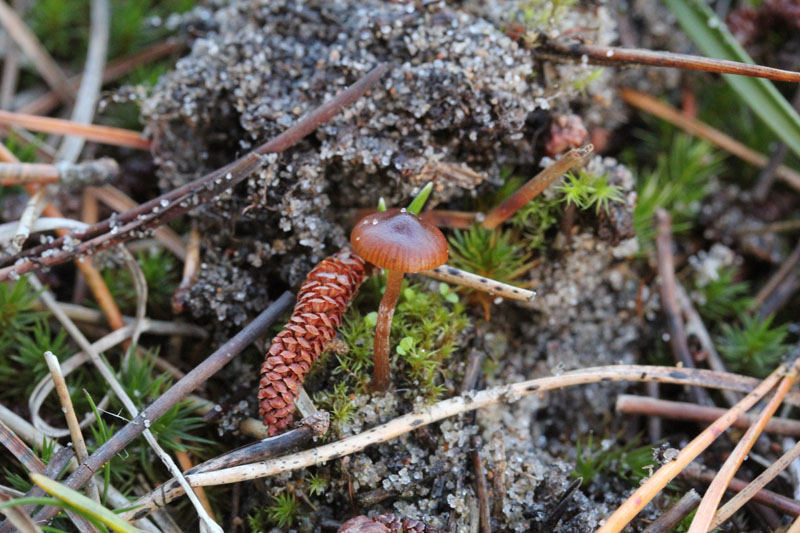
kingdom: Fungi
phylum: Basidiomycota
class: Agaricomycetes
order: Agaricales
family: Strophariaceae
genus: Deconica
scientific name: Deconica montana
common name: rødbrun stråhat
